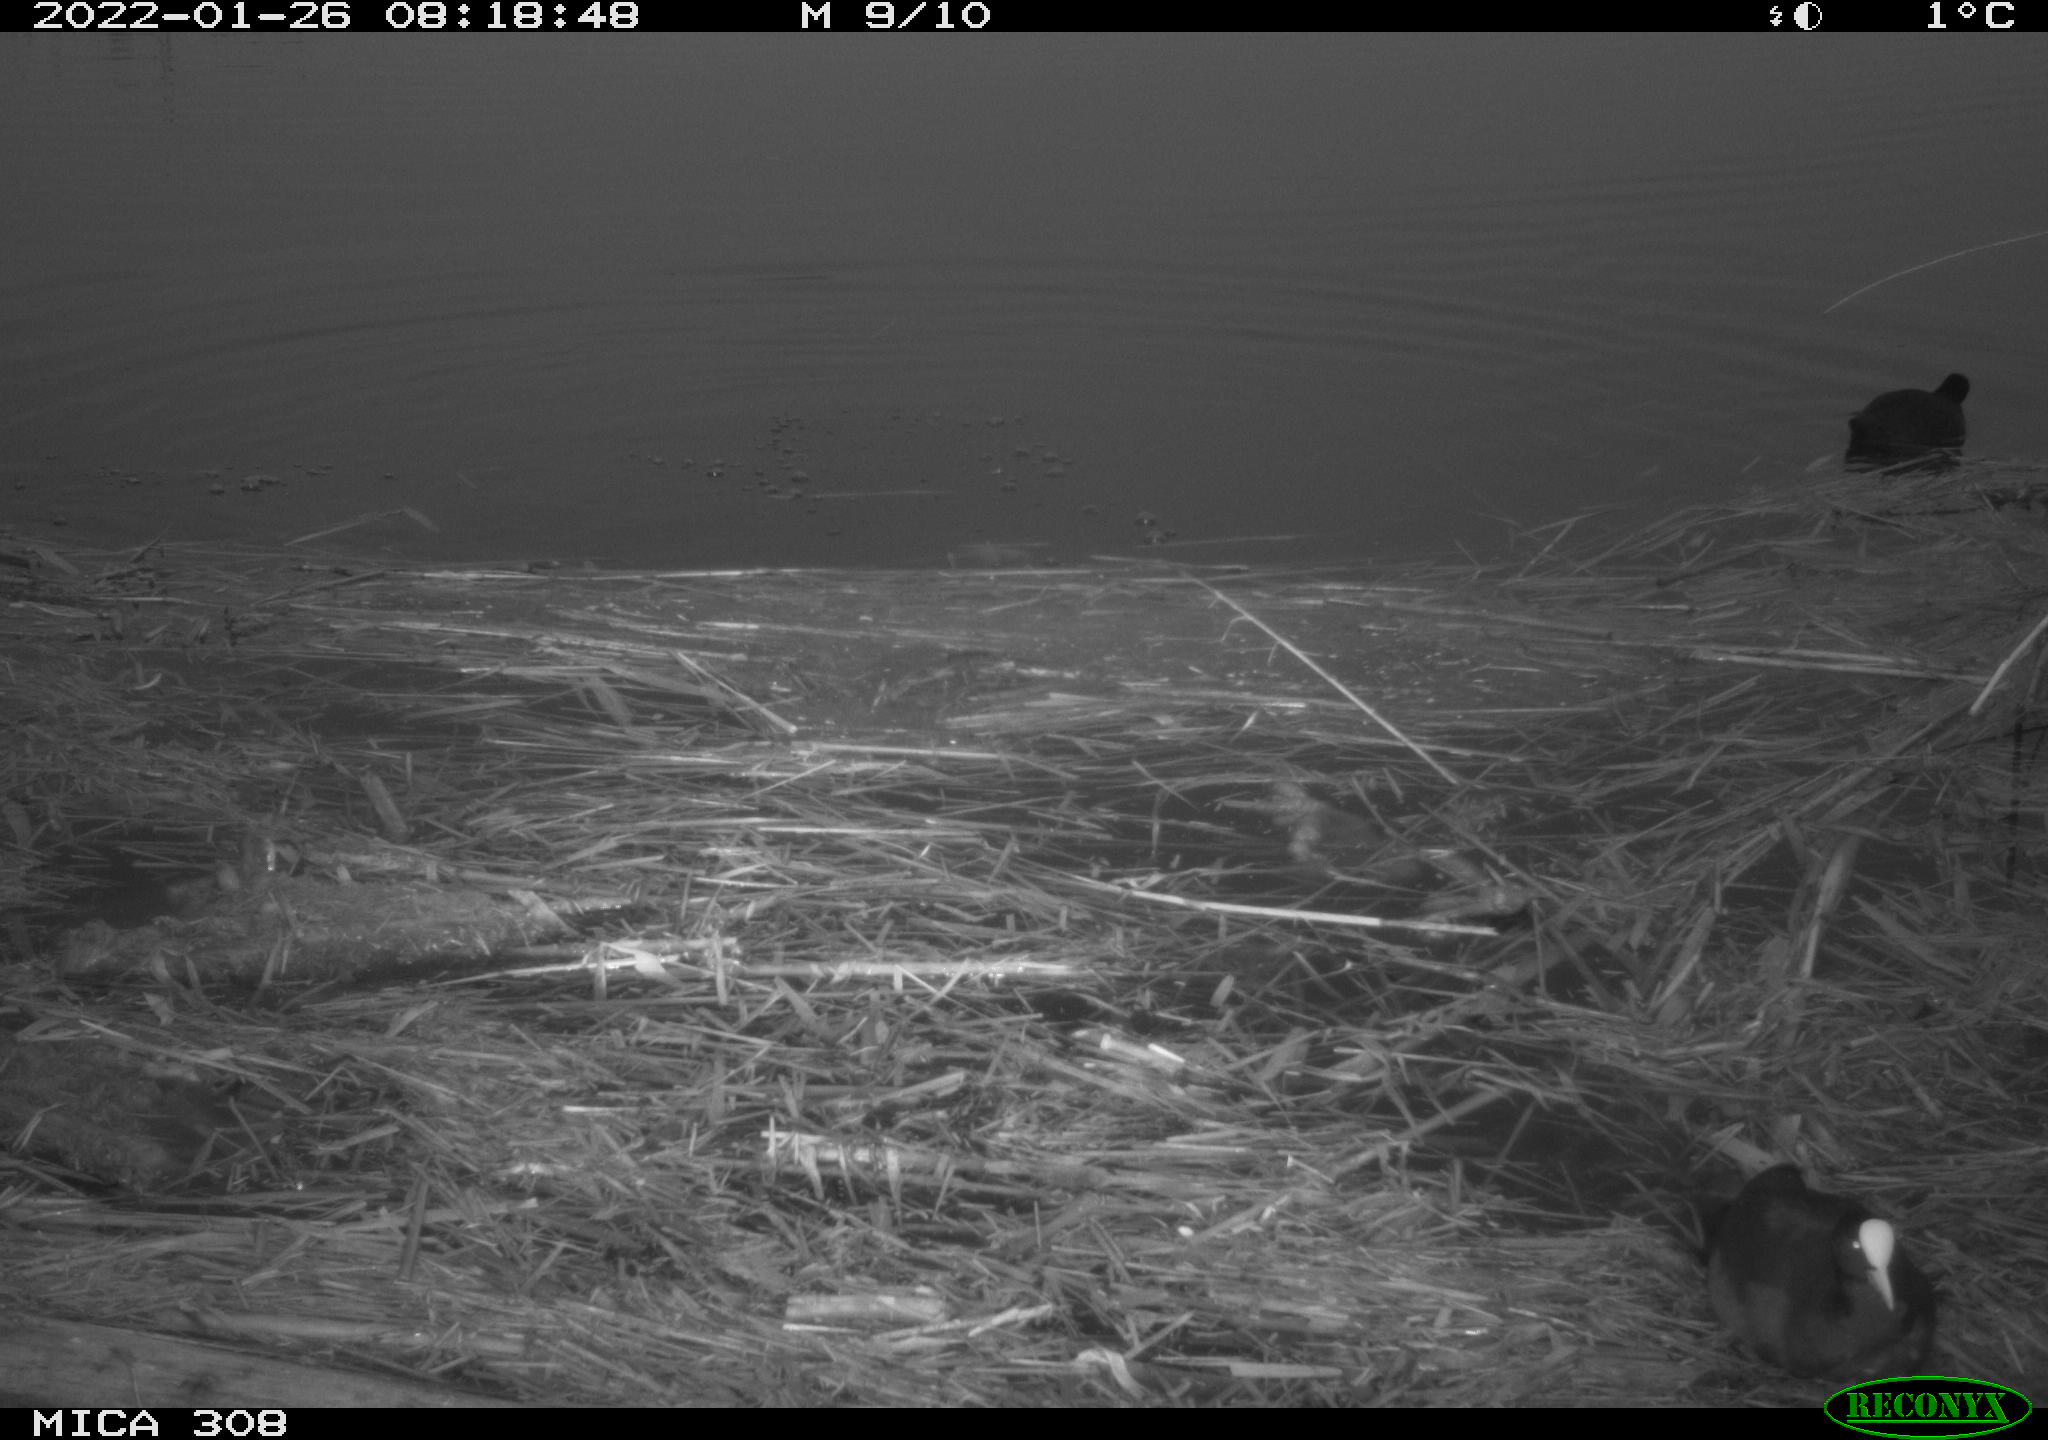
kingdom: Animalia
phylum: Chordata
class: Aves
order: Gruiformes
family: Rallidae
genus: Fulica
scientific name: Fulica atra
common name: Eurasian coot
